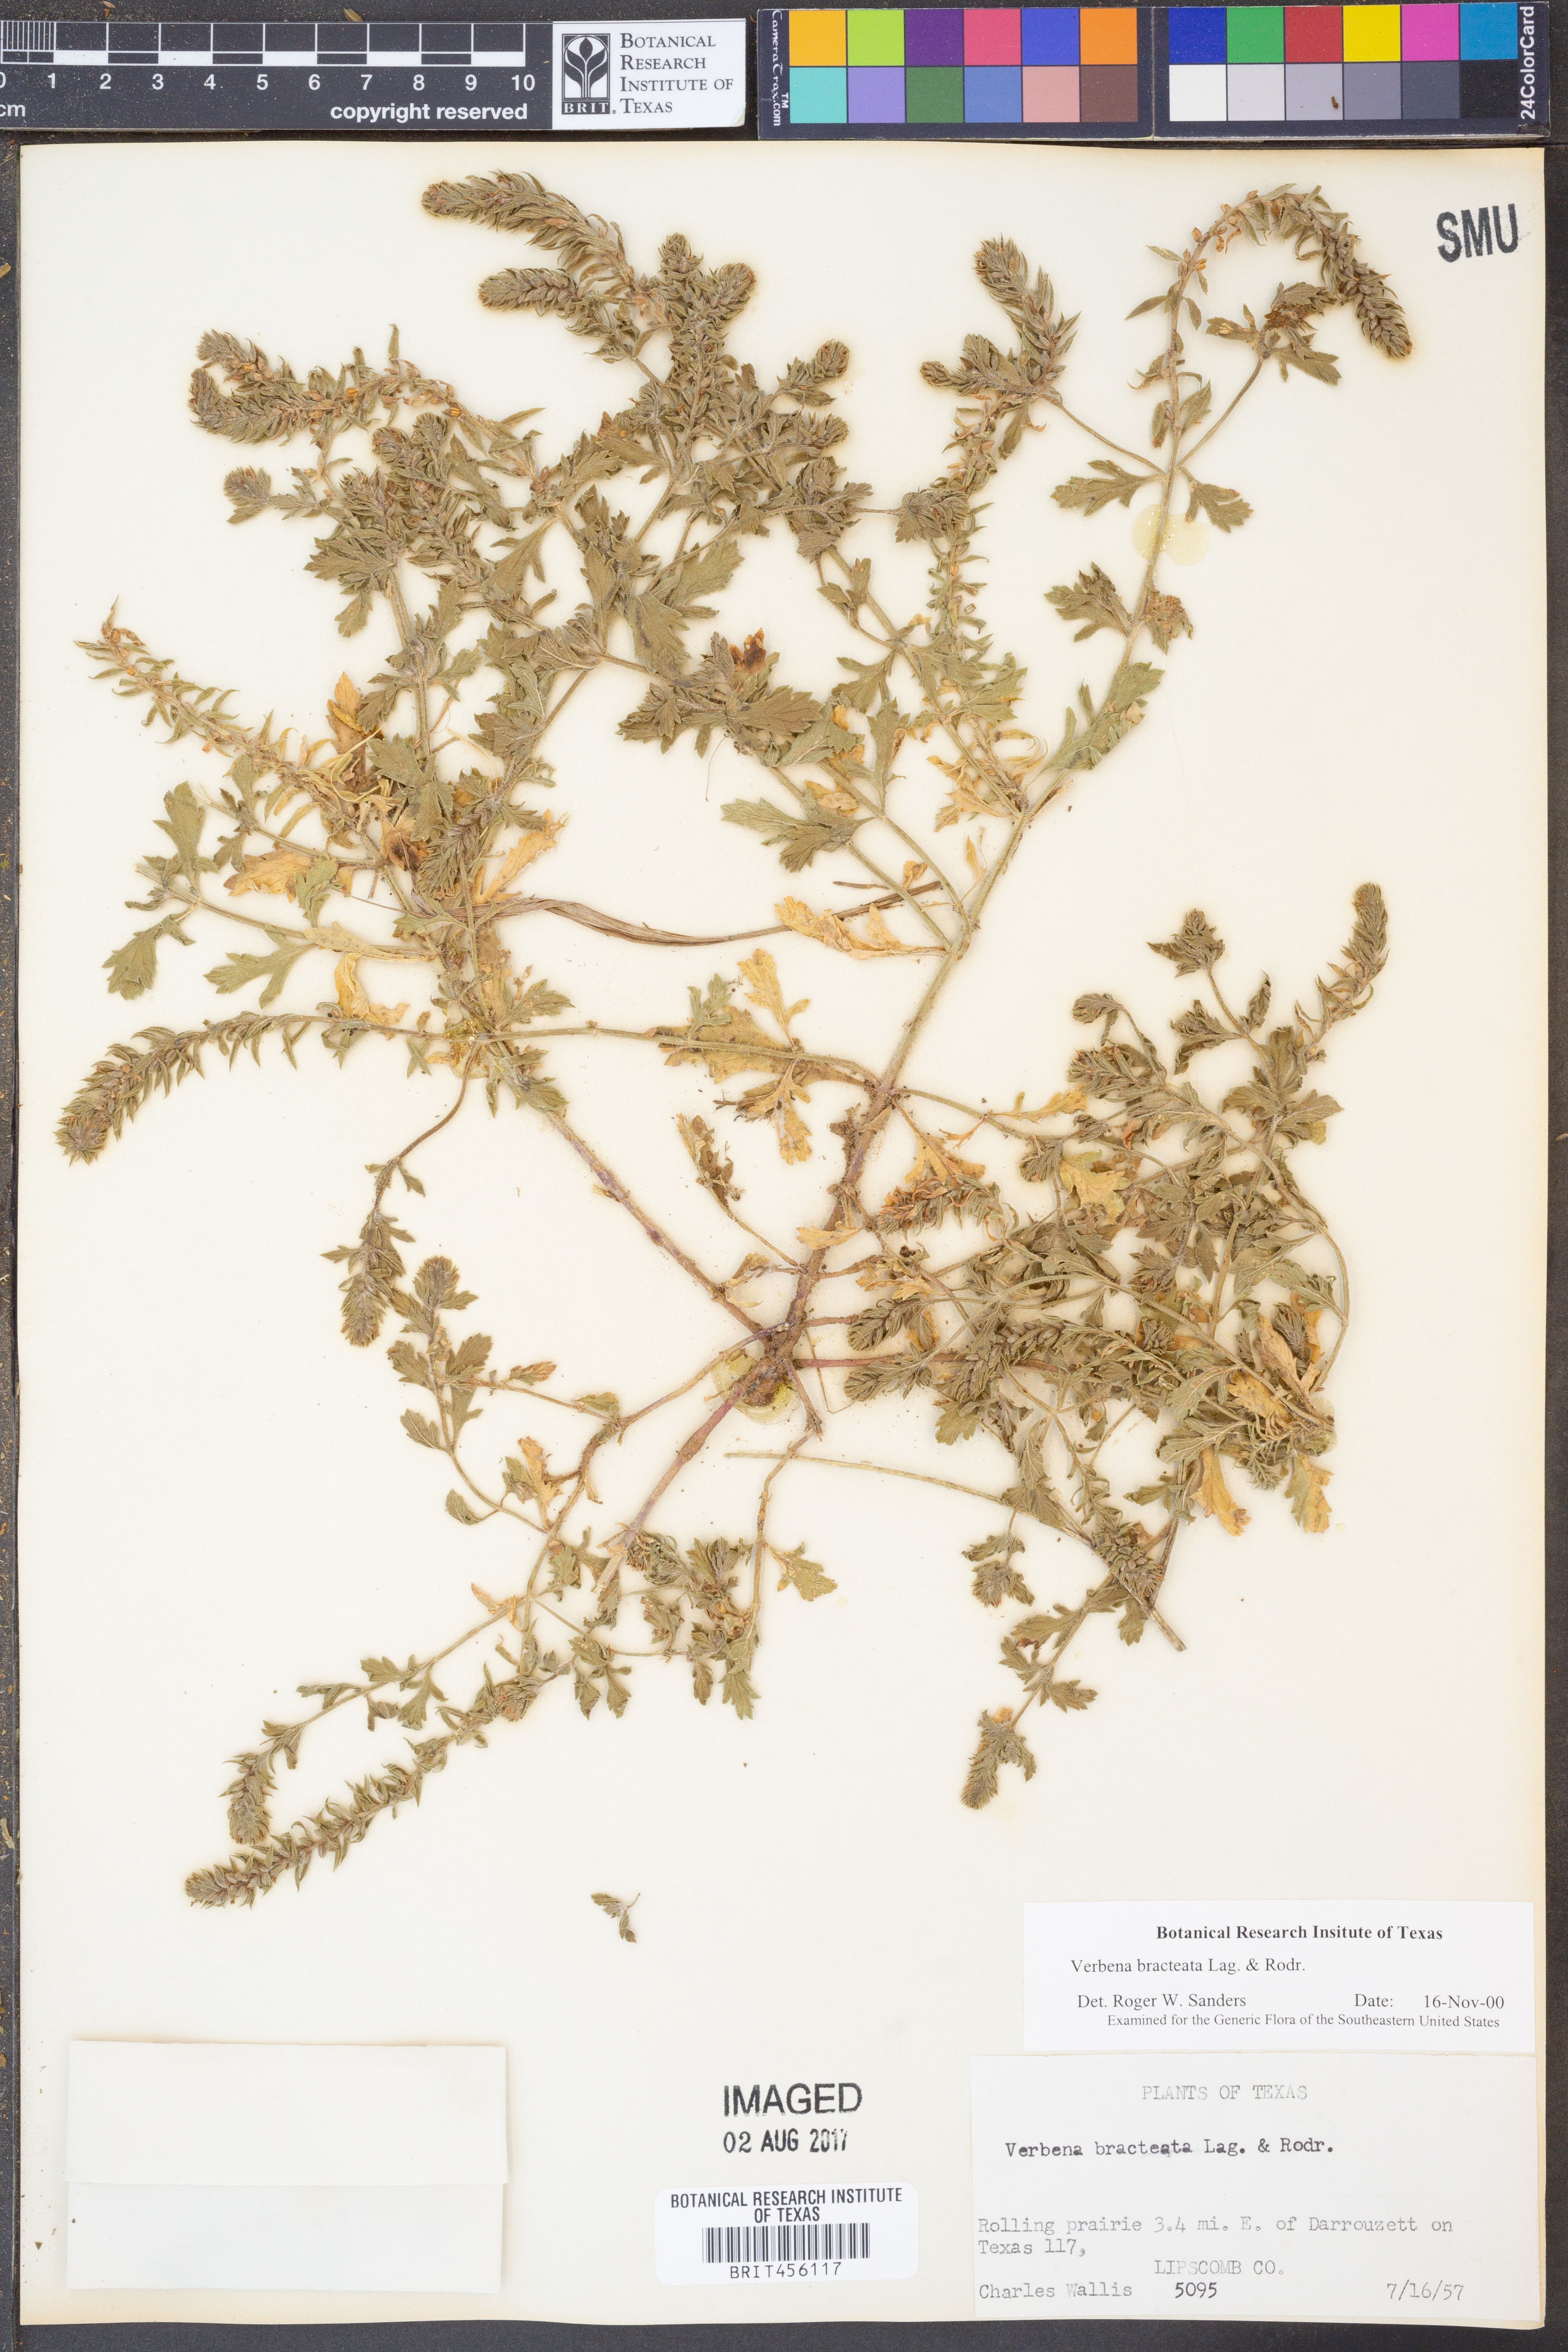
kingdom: Plantae
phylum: Tracheophyta
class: Magnoliopsida
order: Lamiales
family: Verbenaceae
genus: Verbena
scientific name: Verbena bracteata
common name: Bracted vervain
